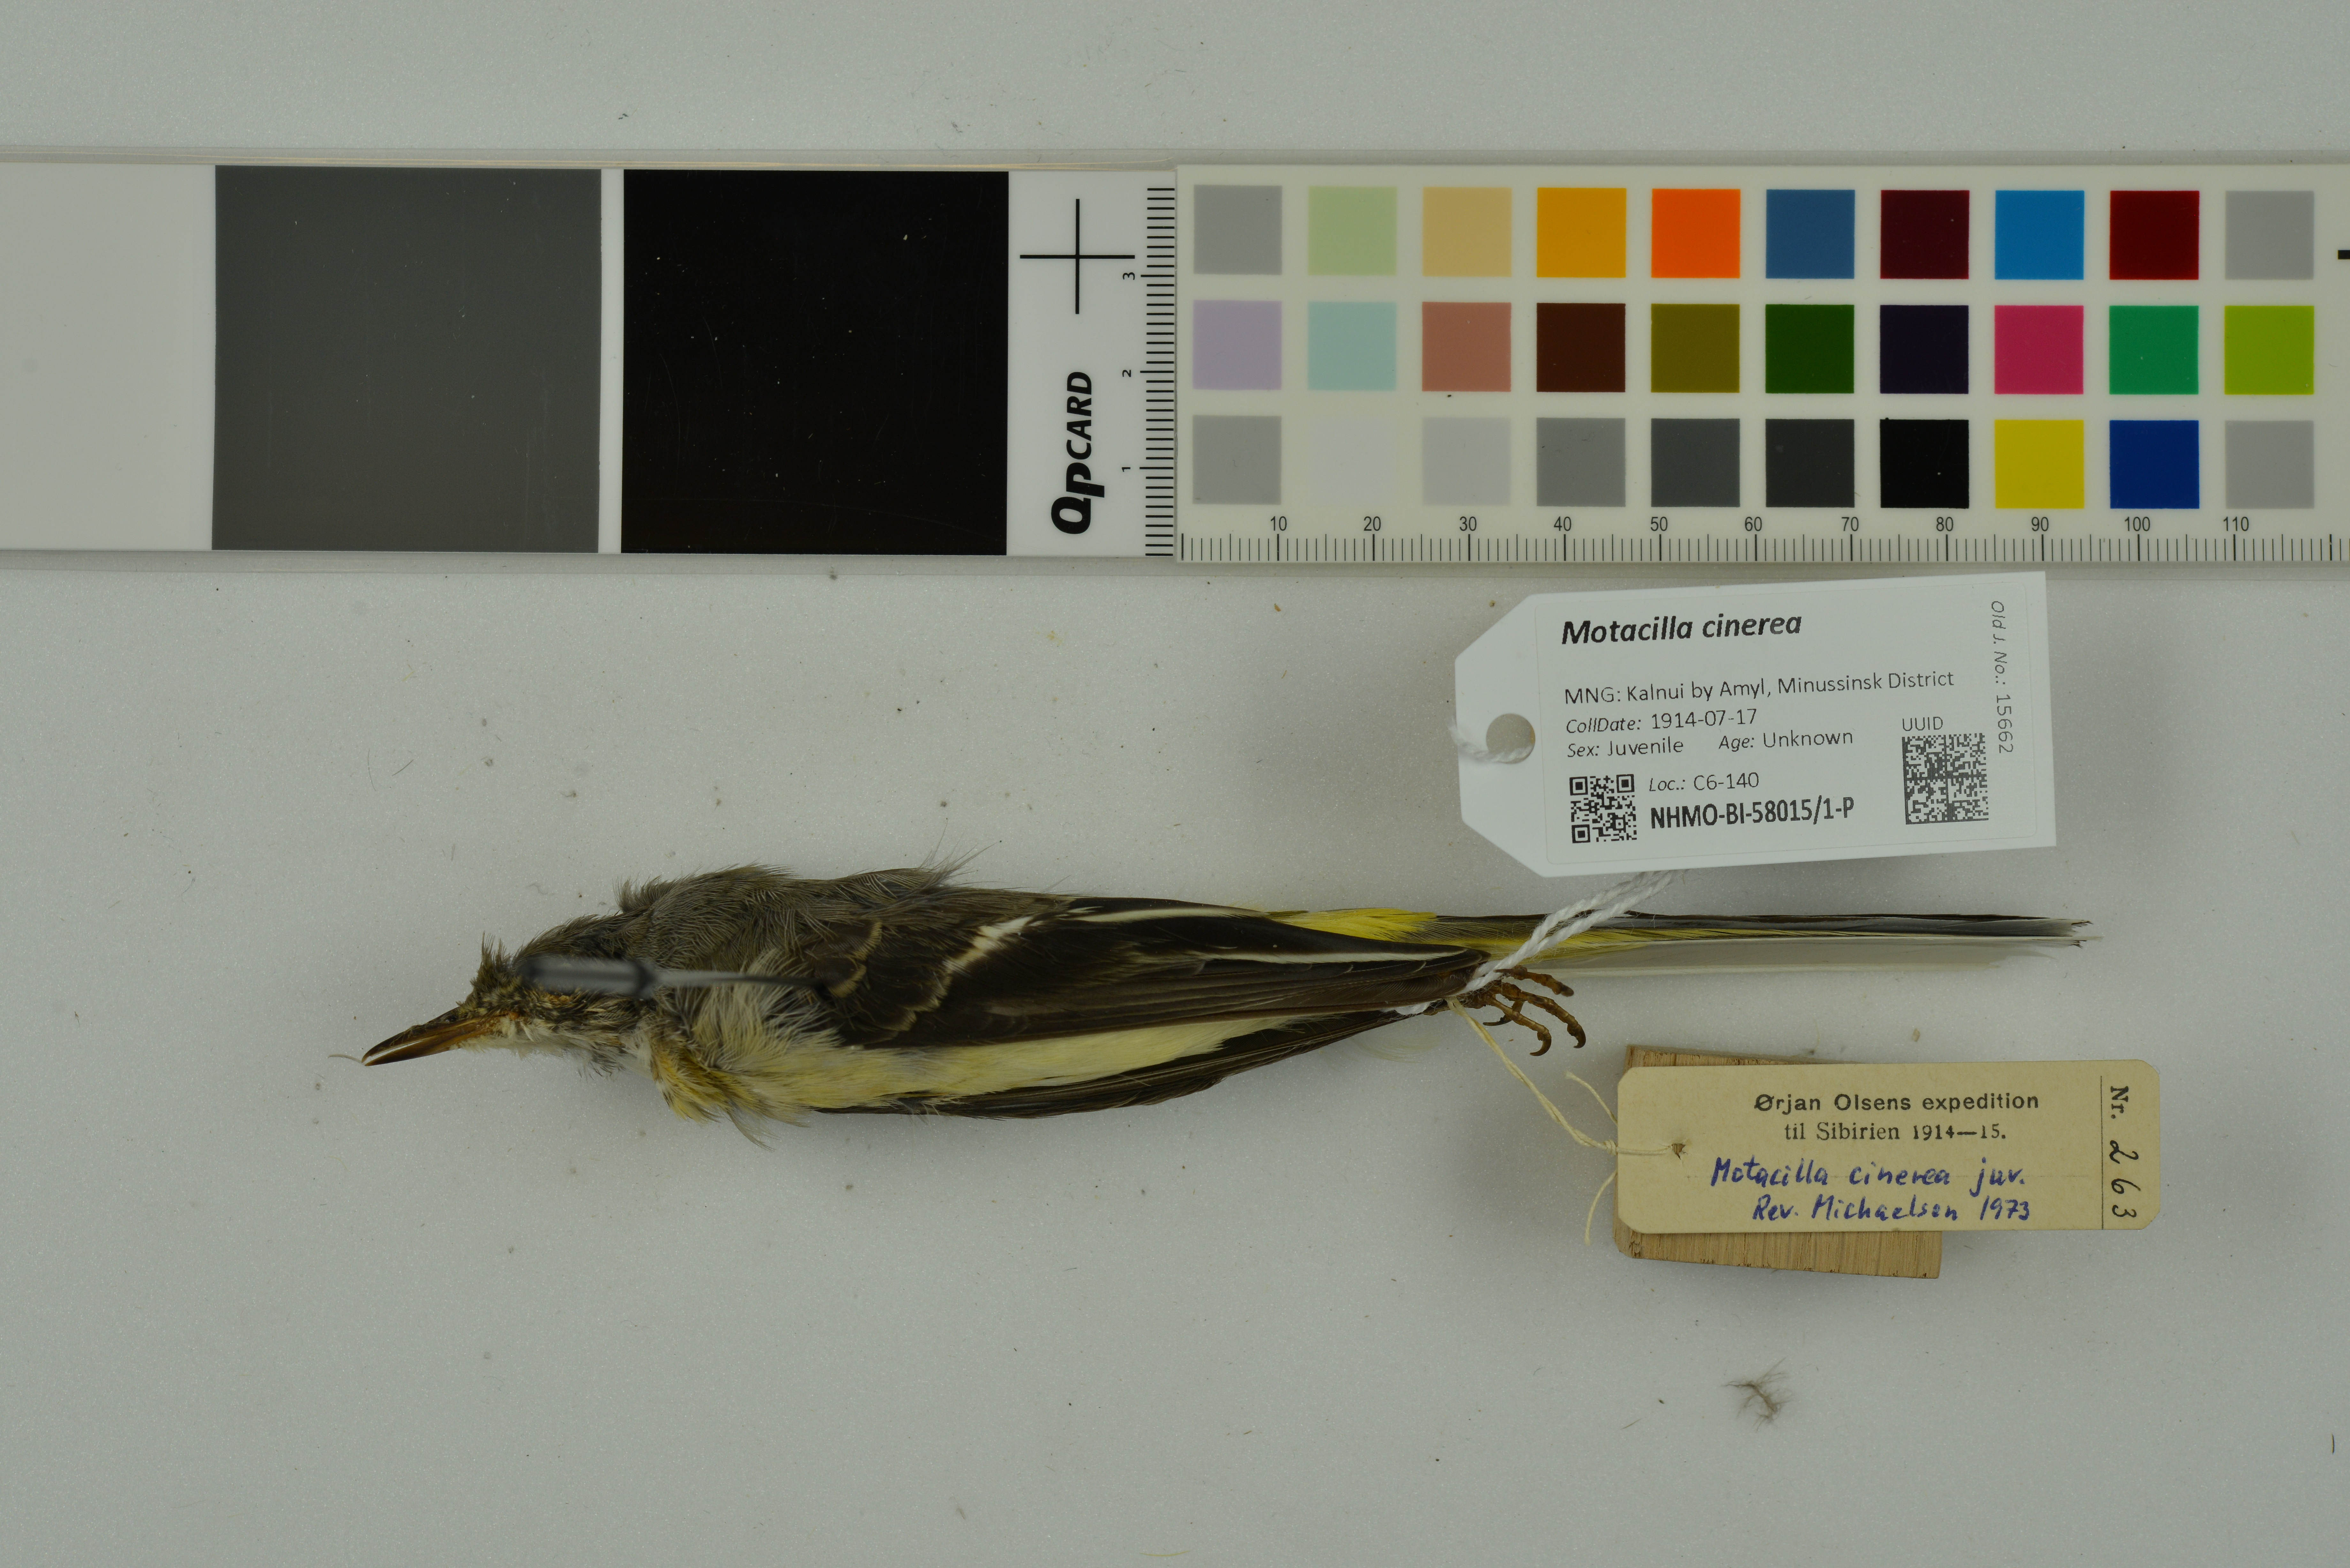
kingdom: Animalia
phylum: Chordata
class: Aves
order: Passeriformes
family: Motacillidae
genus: Motacilla
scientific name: Motacilla cinerea
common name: Grey wagtail
